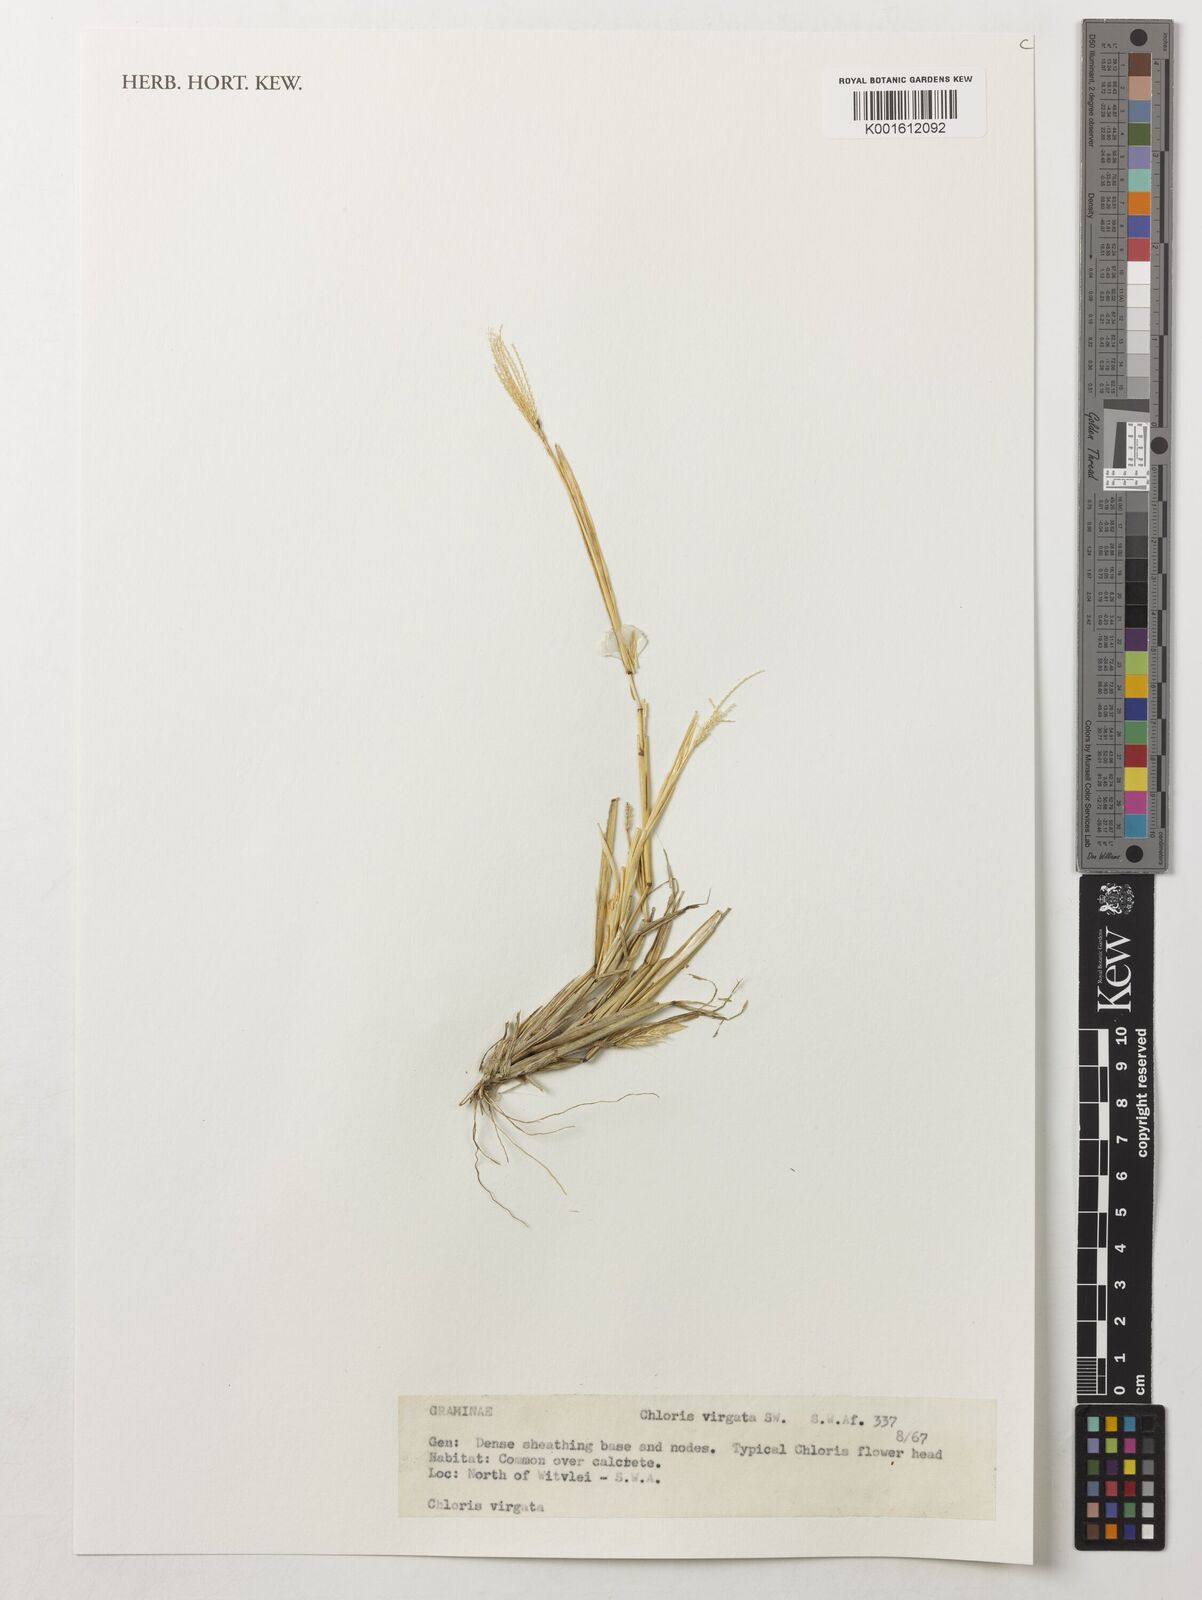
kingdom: Plantae
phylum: Tracheophyta
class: Liliopsida
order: Poales
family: Poaceae
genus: Chloris
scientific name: Chloris virgata
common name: Feathery rhodes-grass
